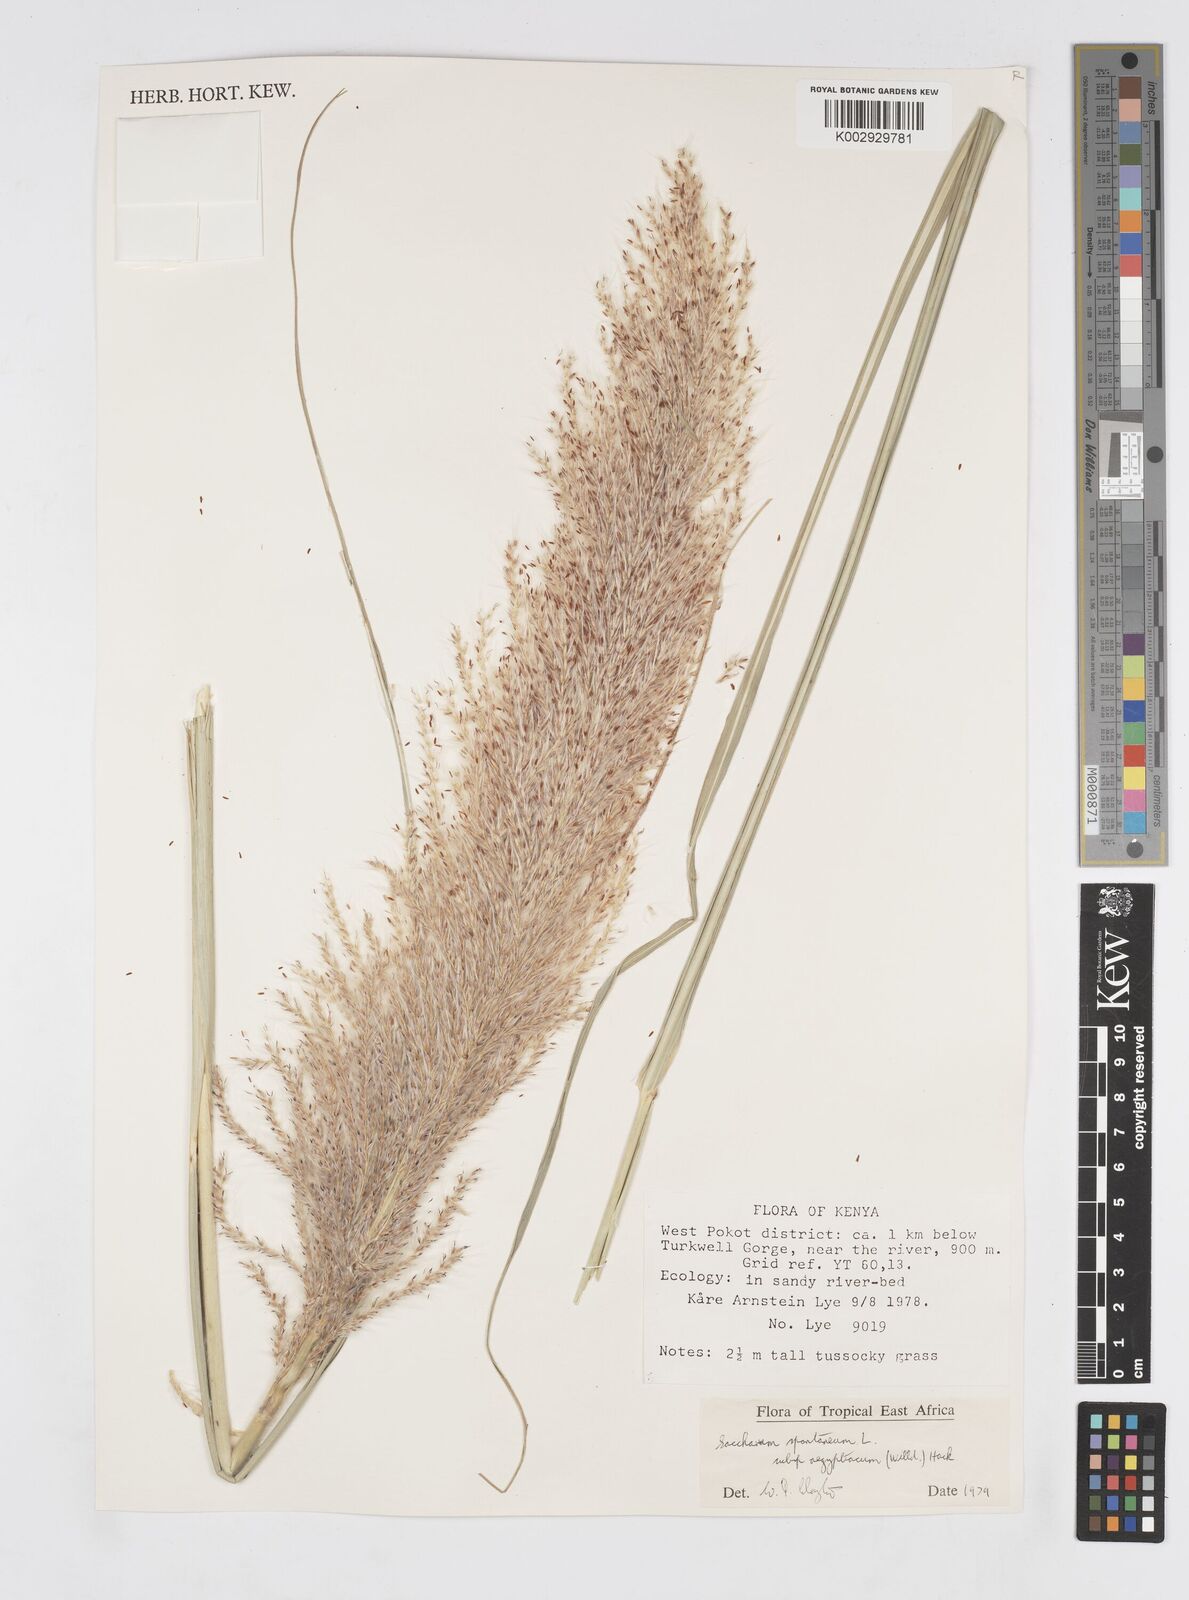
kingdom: Plantae
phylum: Tracheophyta
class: Liliopsida
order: Poales
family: Poaceae
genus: Saccharum
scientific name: Saccharum spontaneum
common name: Wild sugarcane
